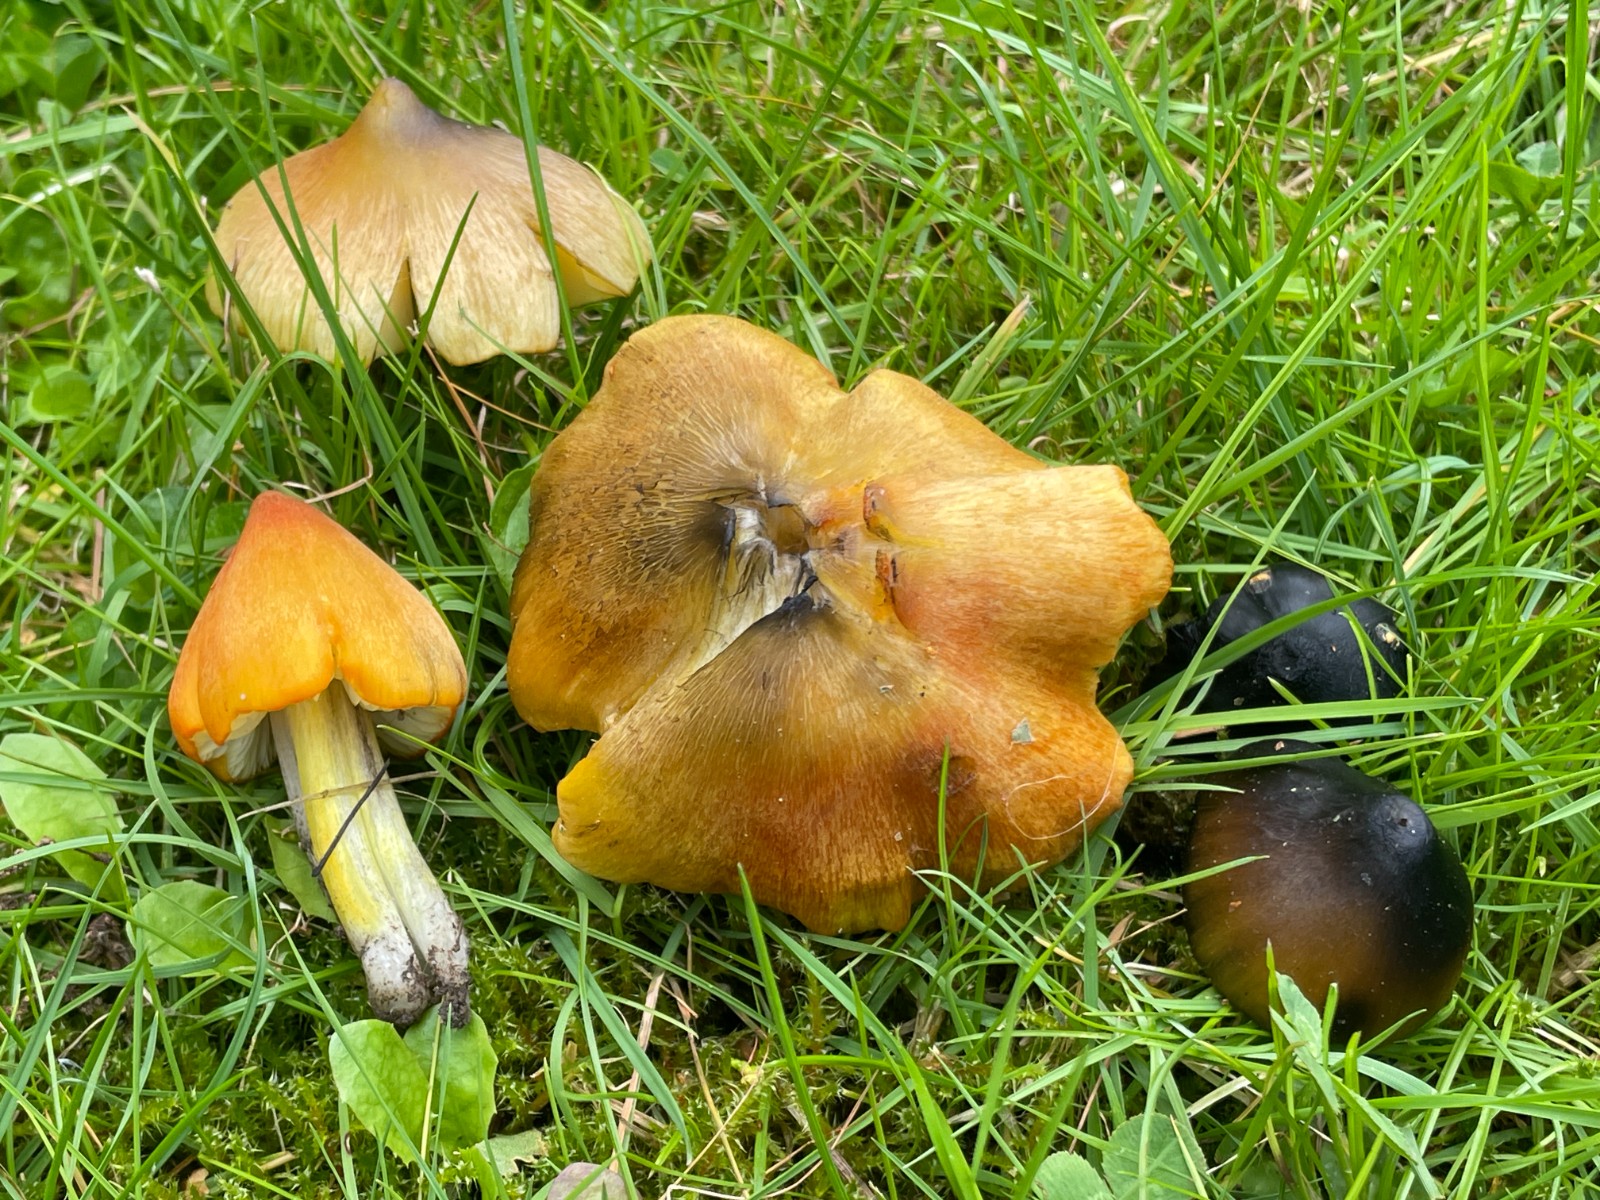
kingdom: Fungi
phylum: Basidiomycota
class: Agaricomycetes
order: Agaricales
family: Hygrophoraceae
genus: Hygrocybe
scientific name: Hygrocybe conica
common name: kegle-vokshat
